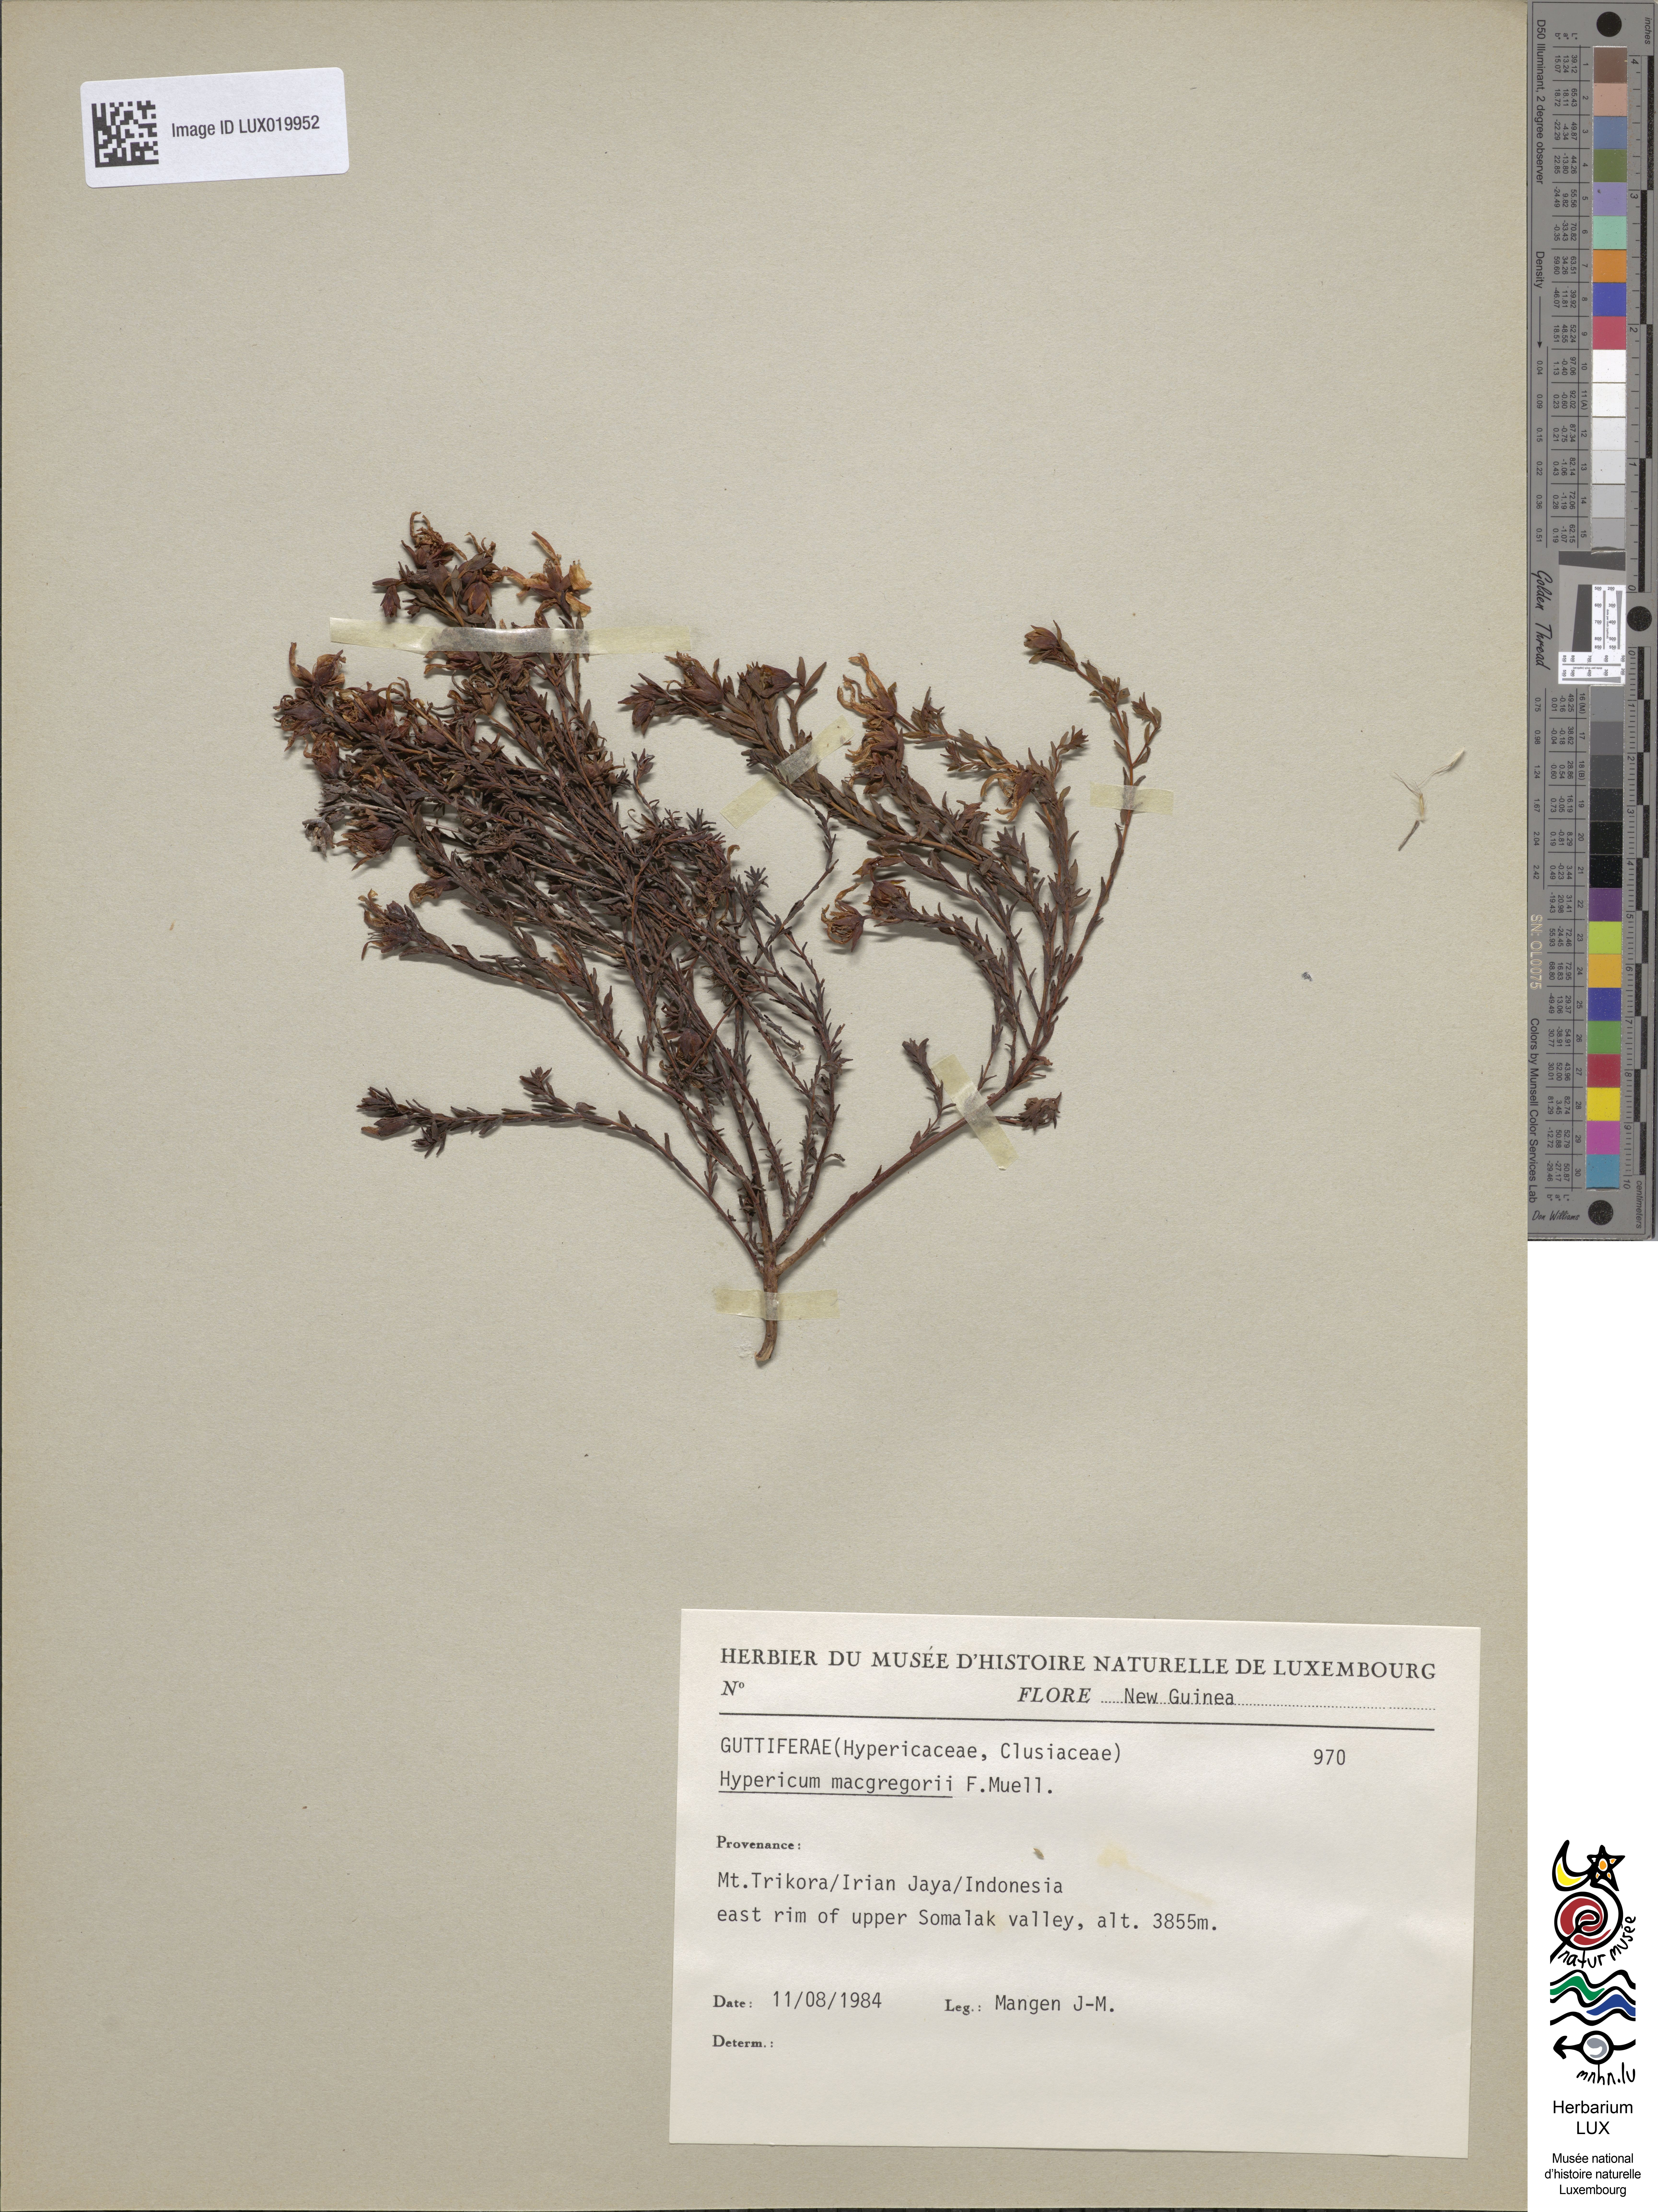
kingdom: Plantae
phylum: Tracheophyta
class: Magnoliopsida
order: Malpighiales
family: Hypericaceae
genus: Hypericum
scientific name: Hypericum macgregorii
